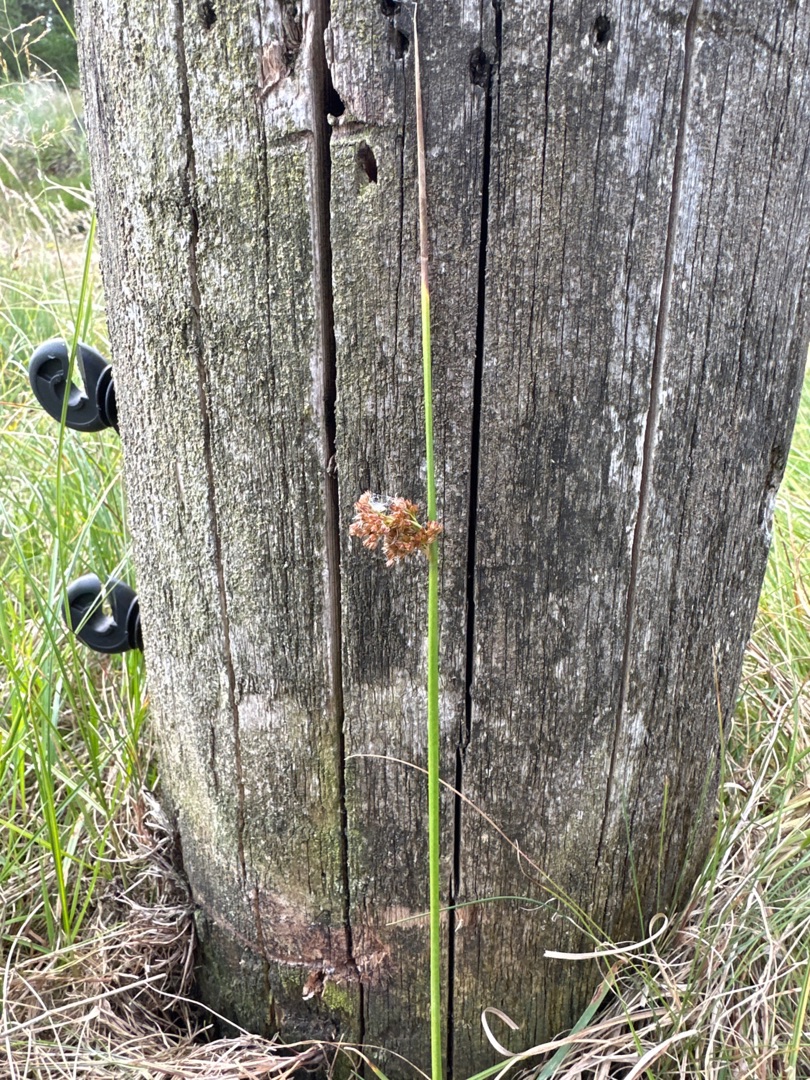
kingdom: Plantae
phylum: Tracheophyta
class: Liliopsida
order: Poales
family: Juncaceae
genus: Juncus
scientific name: Juncus effusus
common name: Lyse-siv
